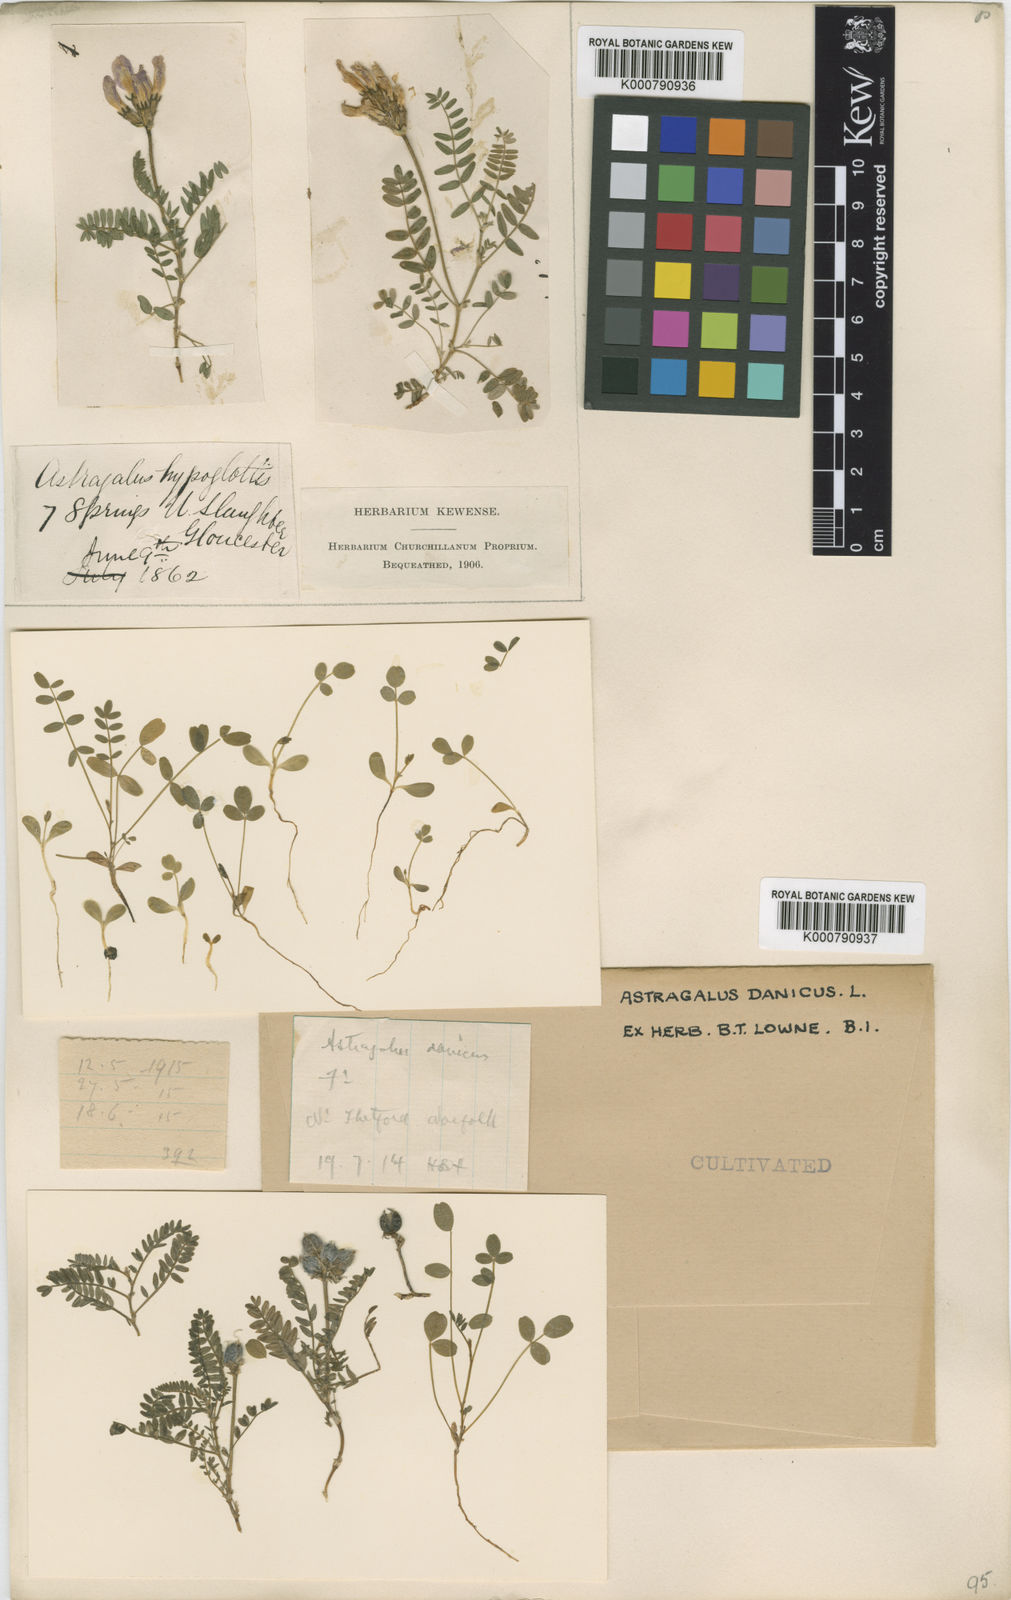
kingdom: Plantae
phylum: Tracheophyta
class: Magnoliopsida
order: Fabales
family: Fabaceae
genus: Astragalus
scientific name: Astragalus danicus
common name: Purple milk-vetch
